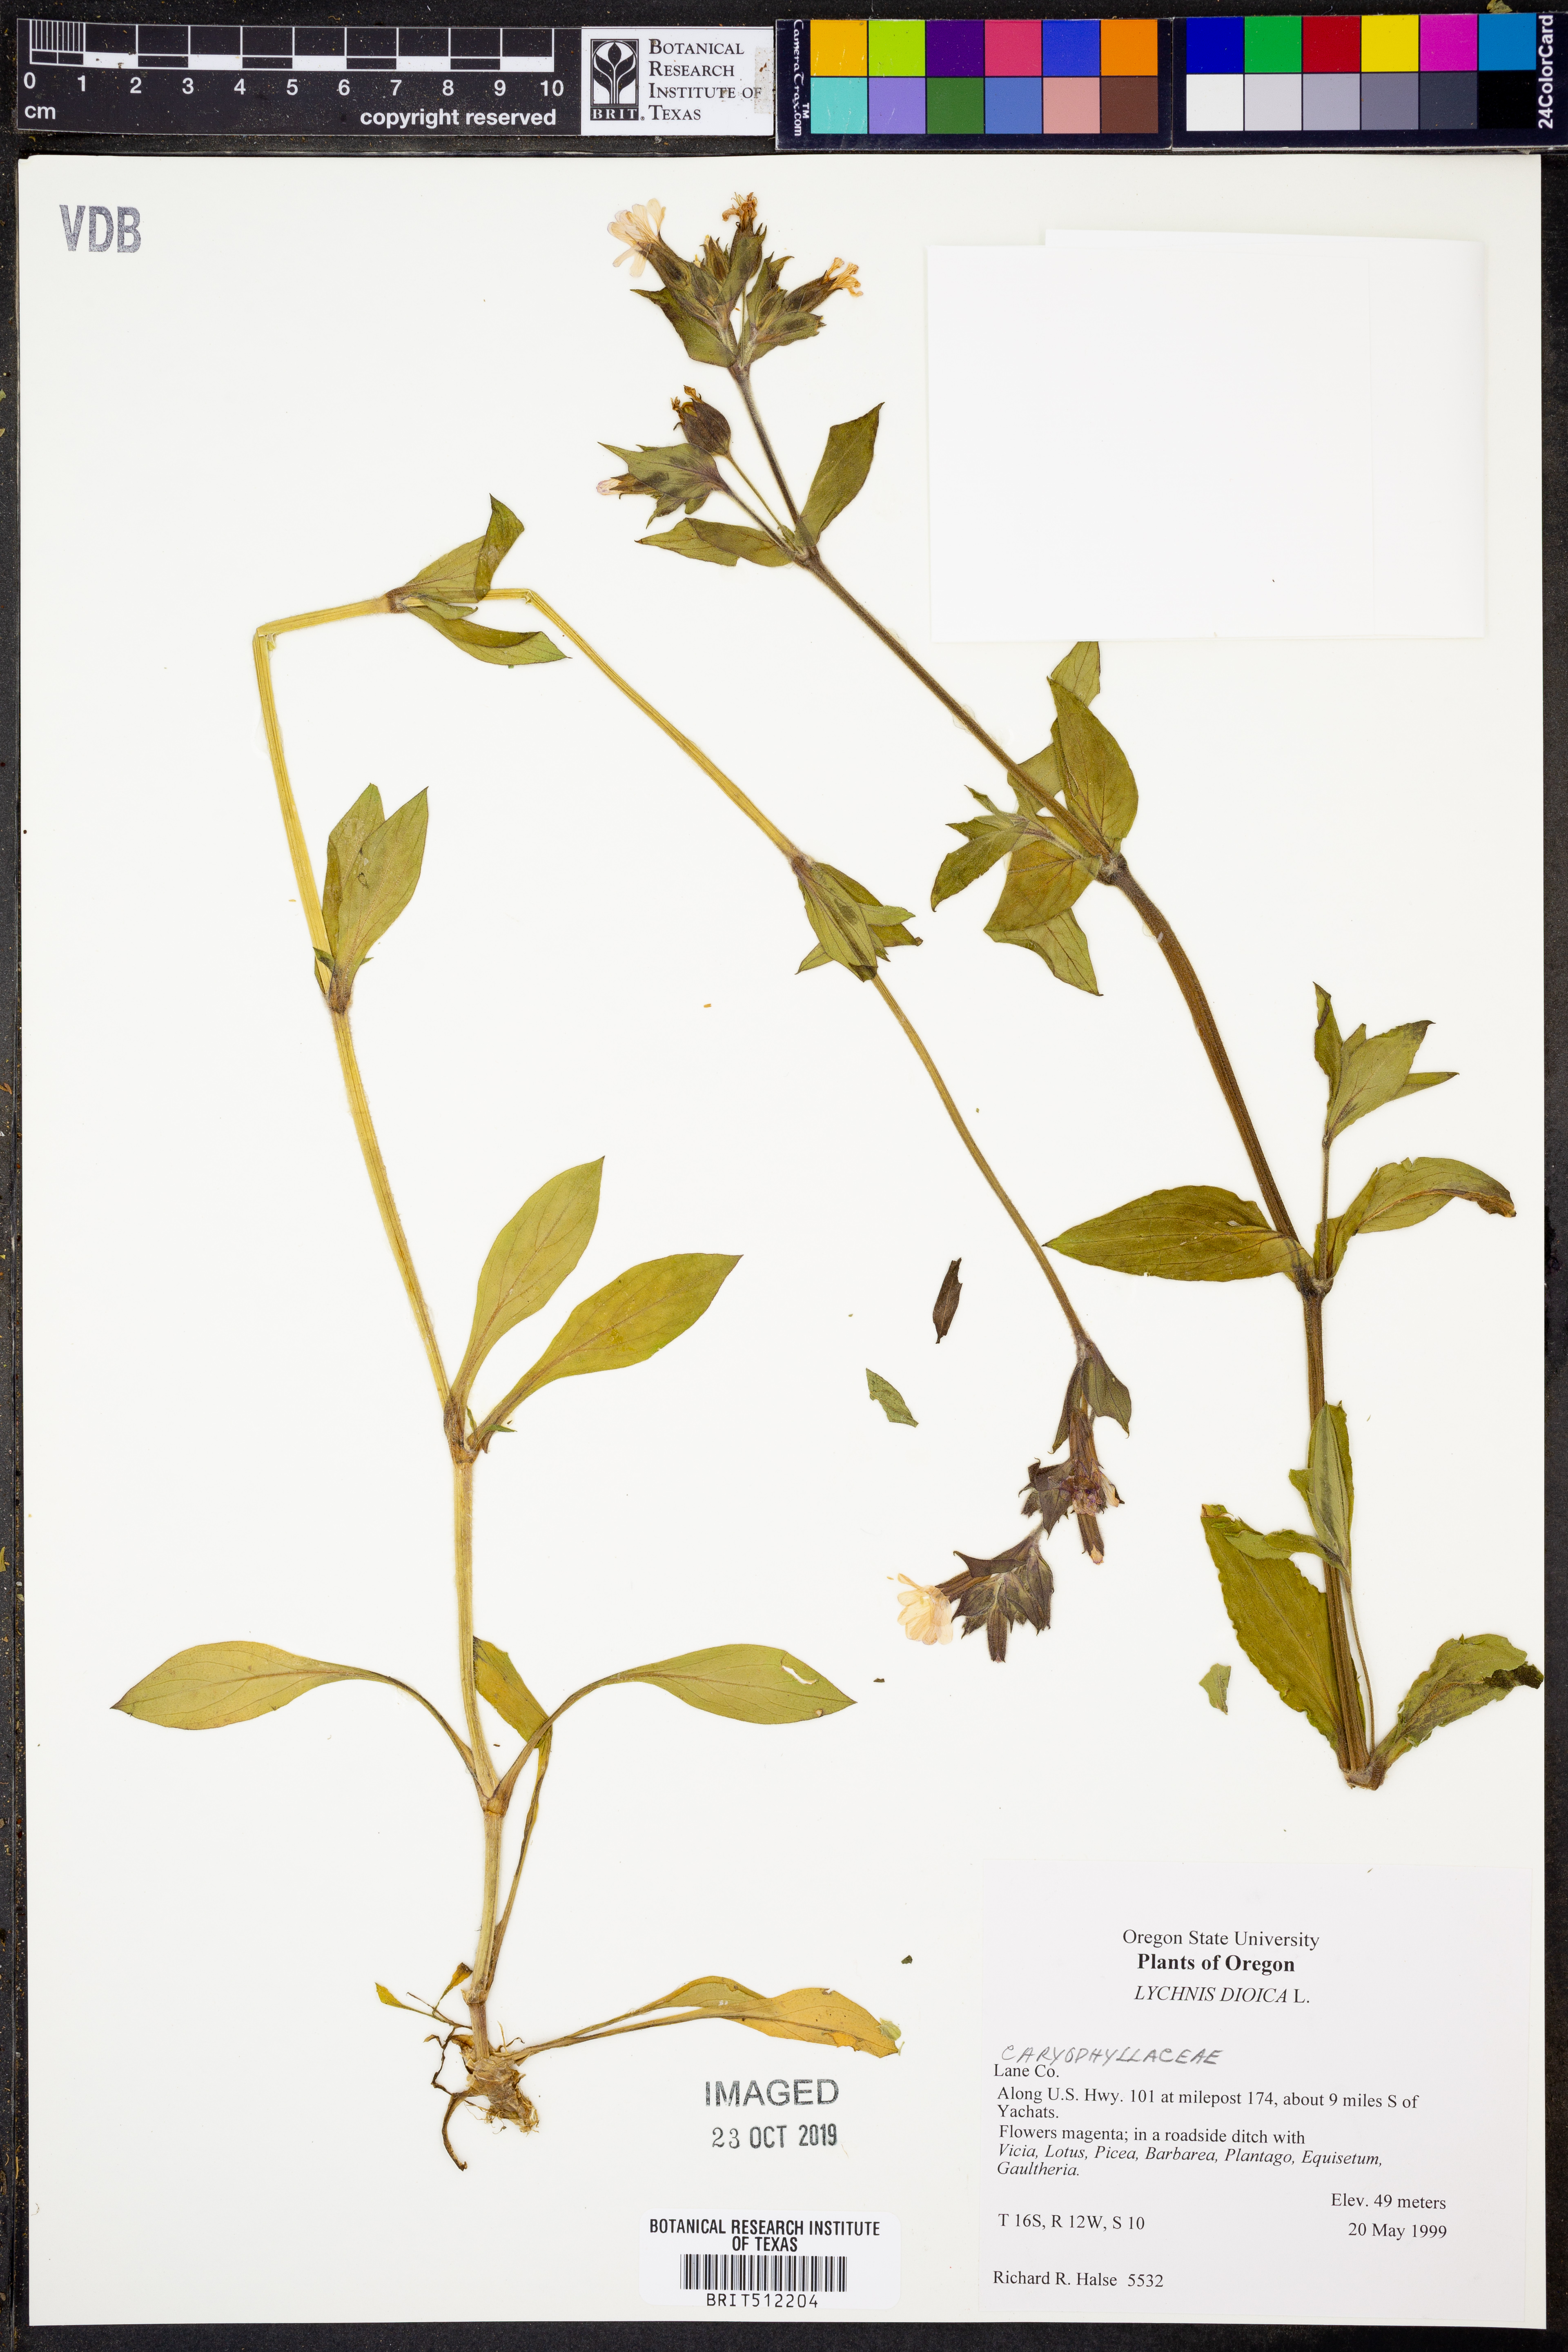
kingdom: Plantae
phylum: Tracheophyta
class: Magnoliopsida
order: Caryophyllales
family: Caryophyllaceae
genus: Silene
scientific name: Silene dioica
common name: Red campion
